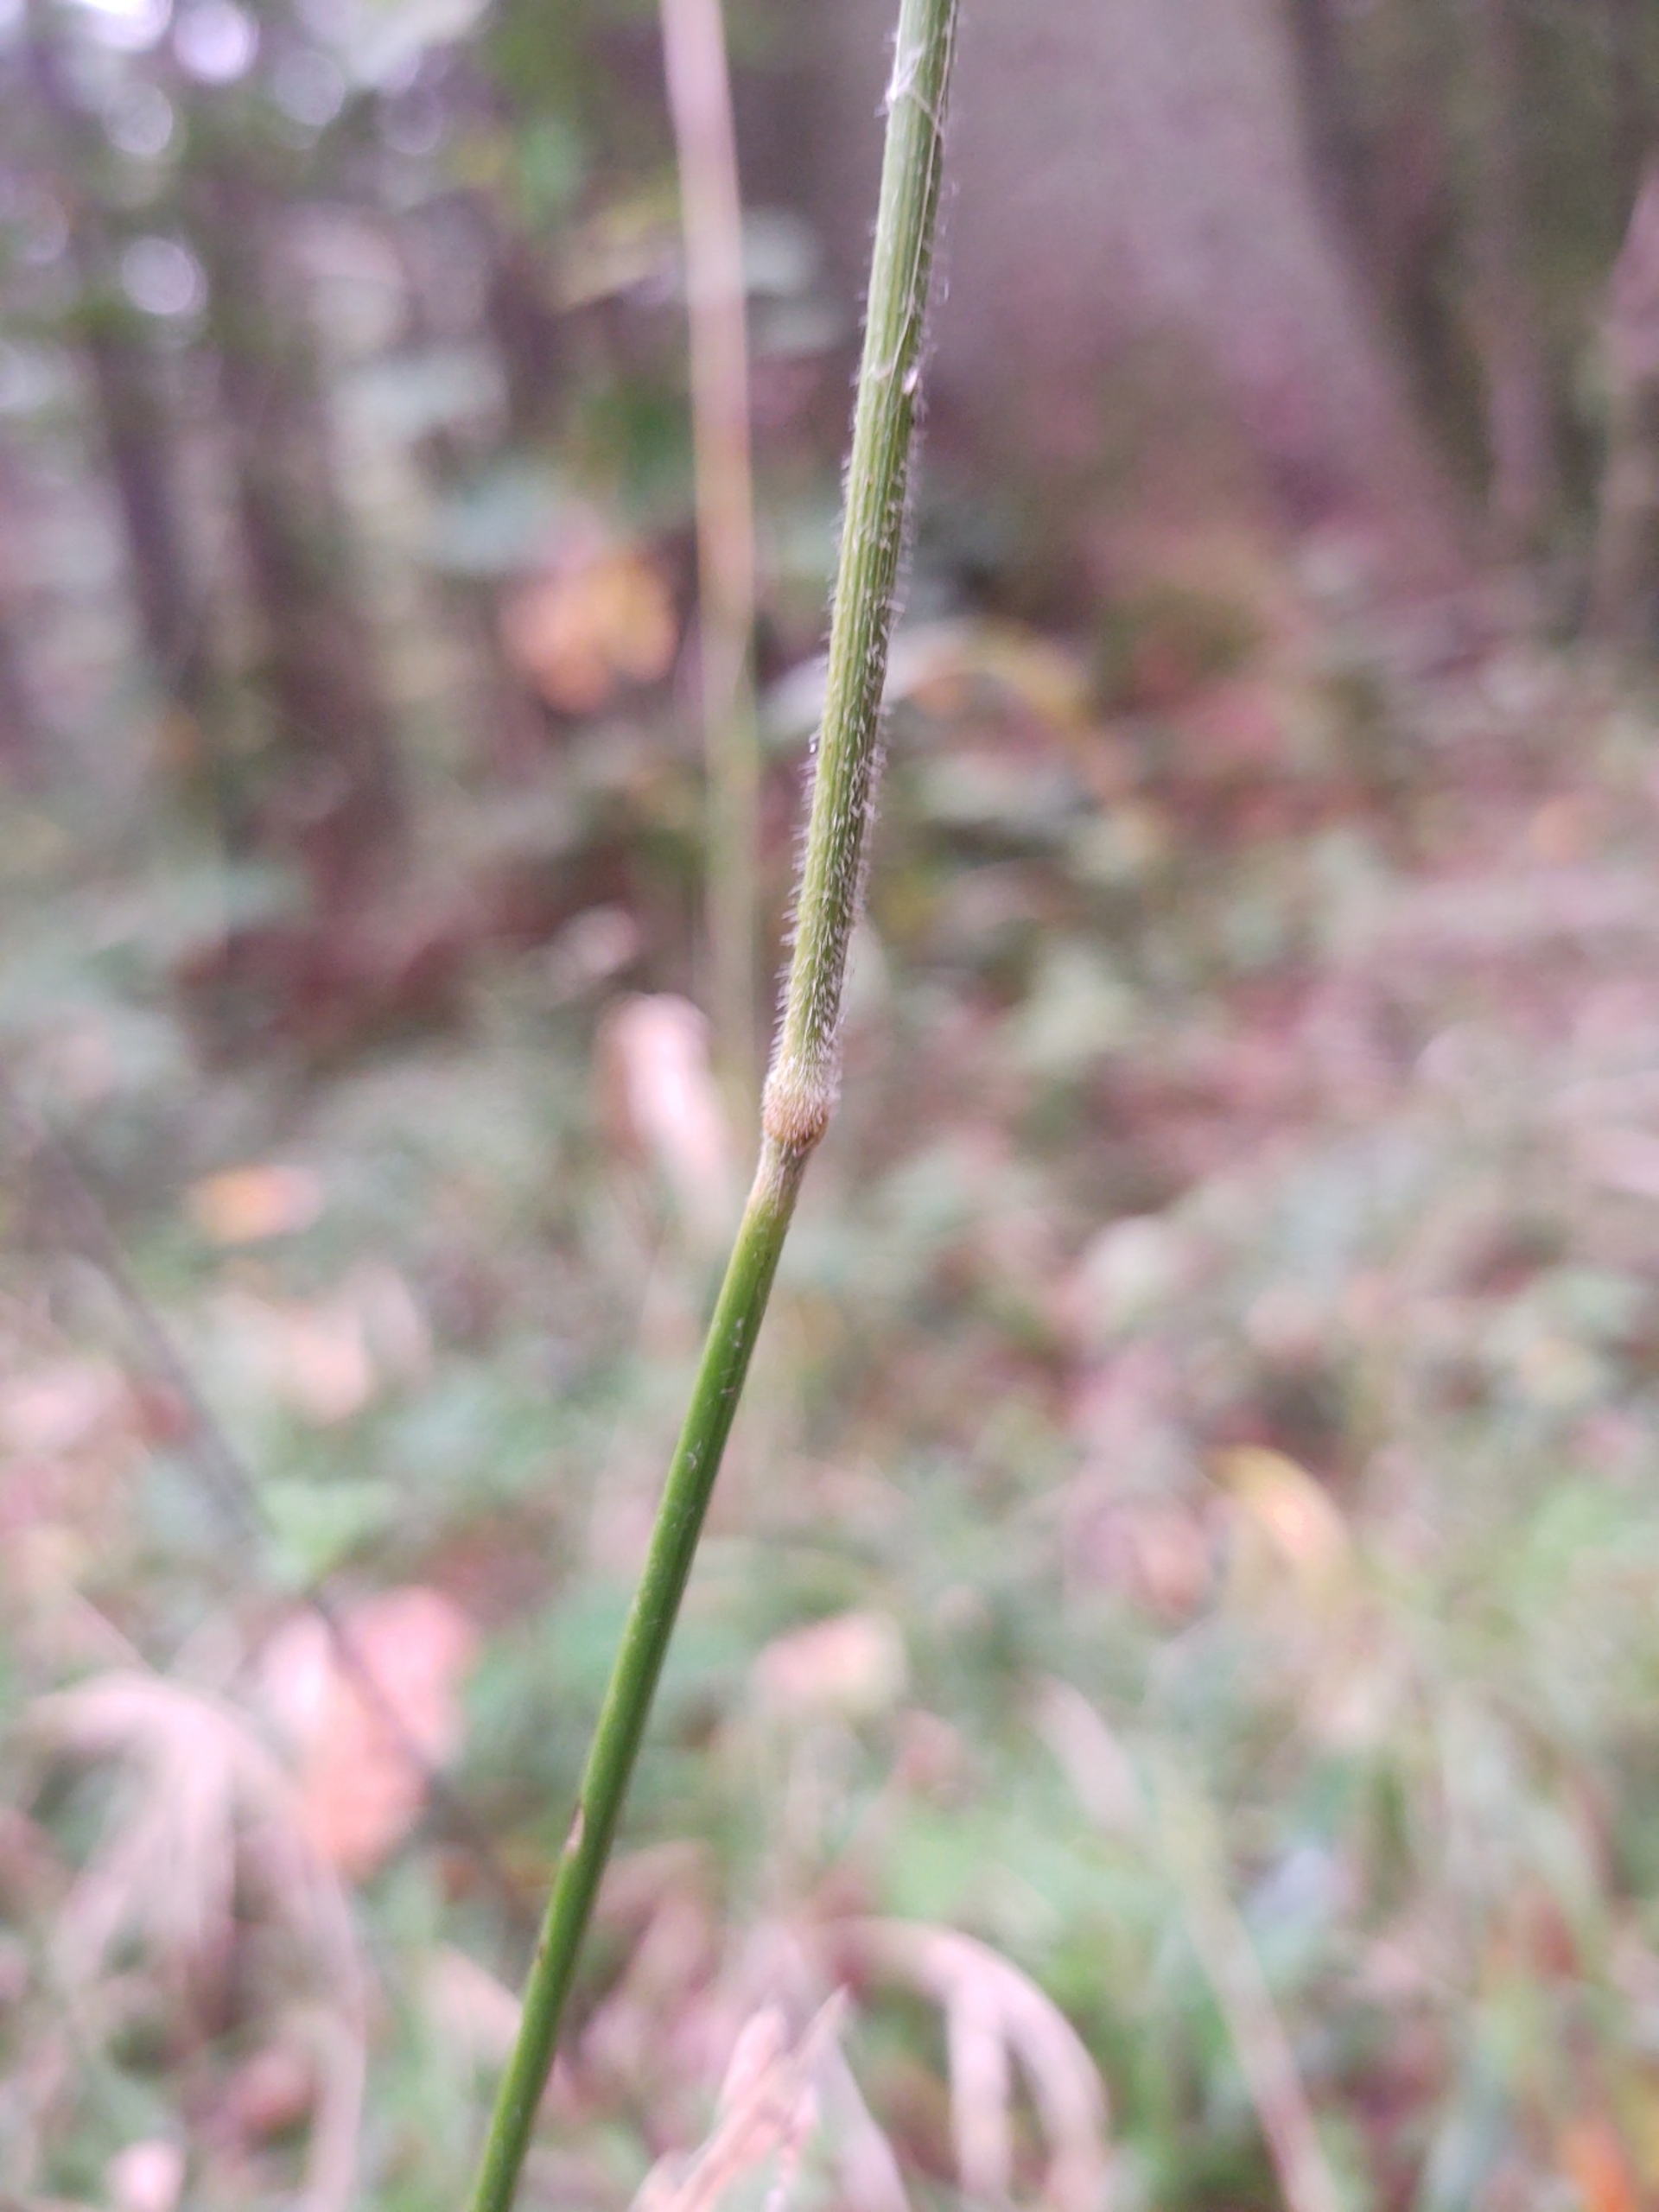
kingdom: Plantae
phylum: Tracheophyta
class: Liliopsida
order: Poales
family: Poaceae
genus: Hordelymus
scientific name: Hordelymus europaeus
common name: Skovbyg
